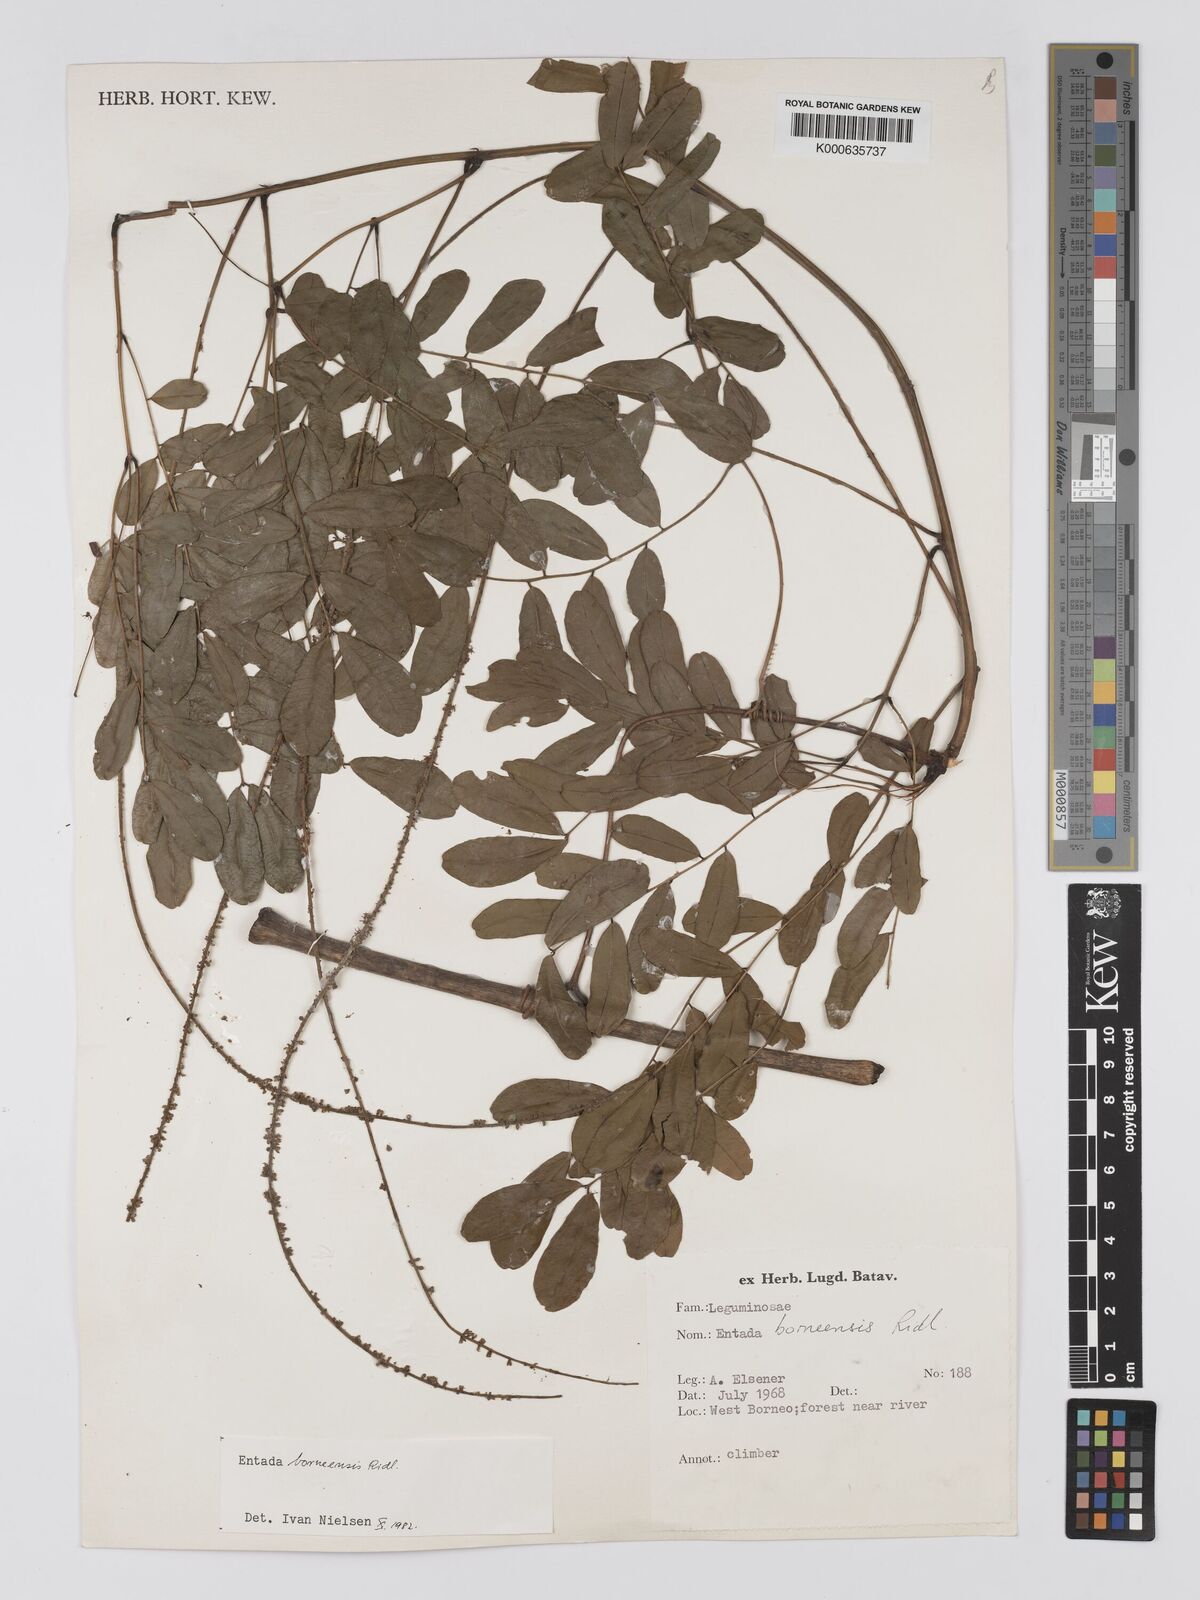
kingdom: Plantae
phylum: Tracheophyta
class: Magnoliopsida
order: Fabales
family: Fabaceae
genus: Entada
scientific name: Entada borneensis
